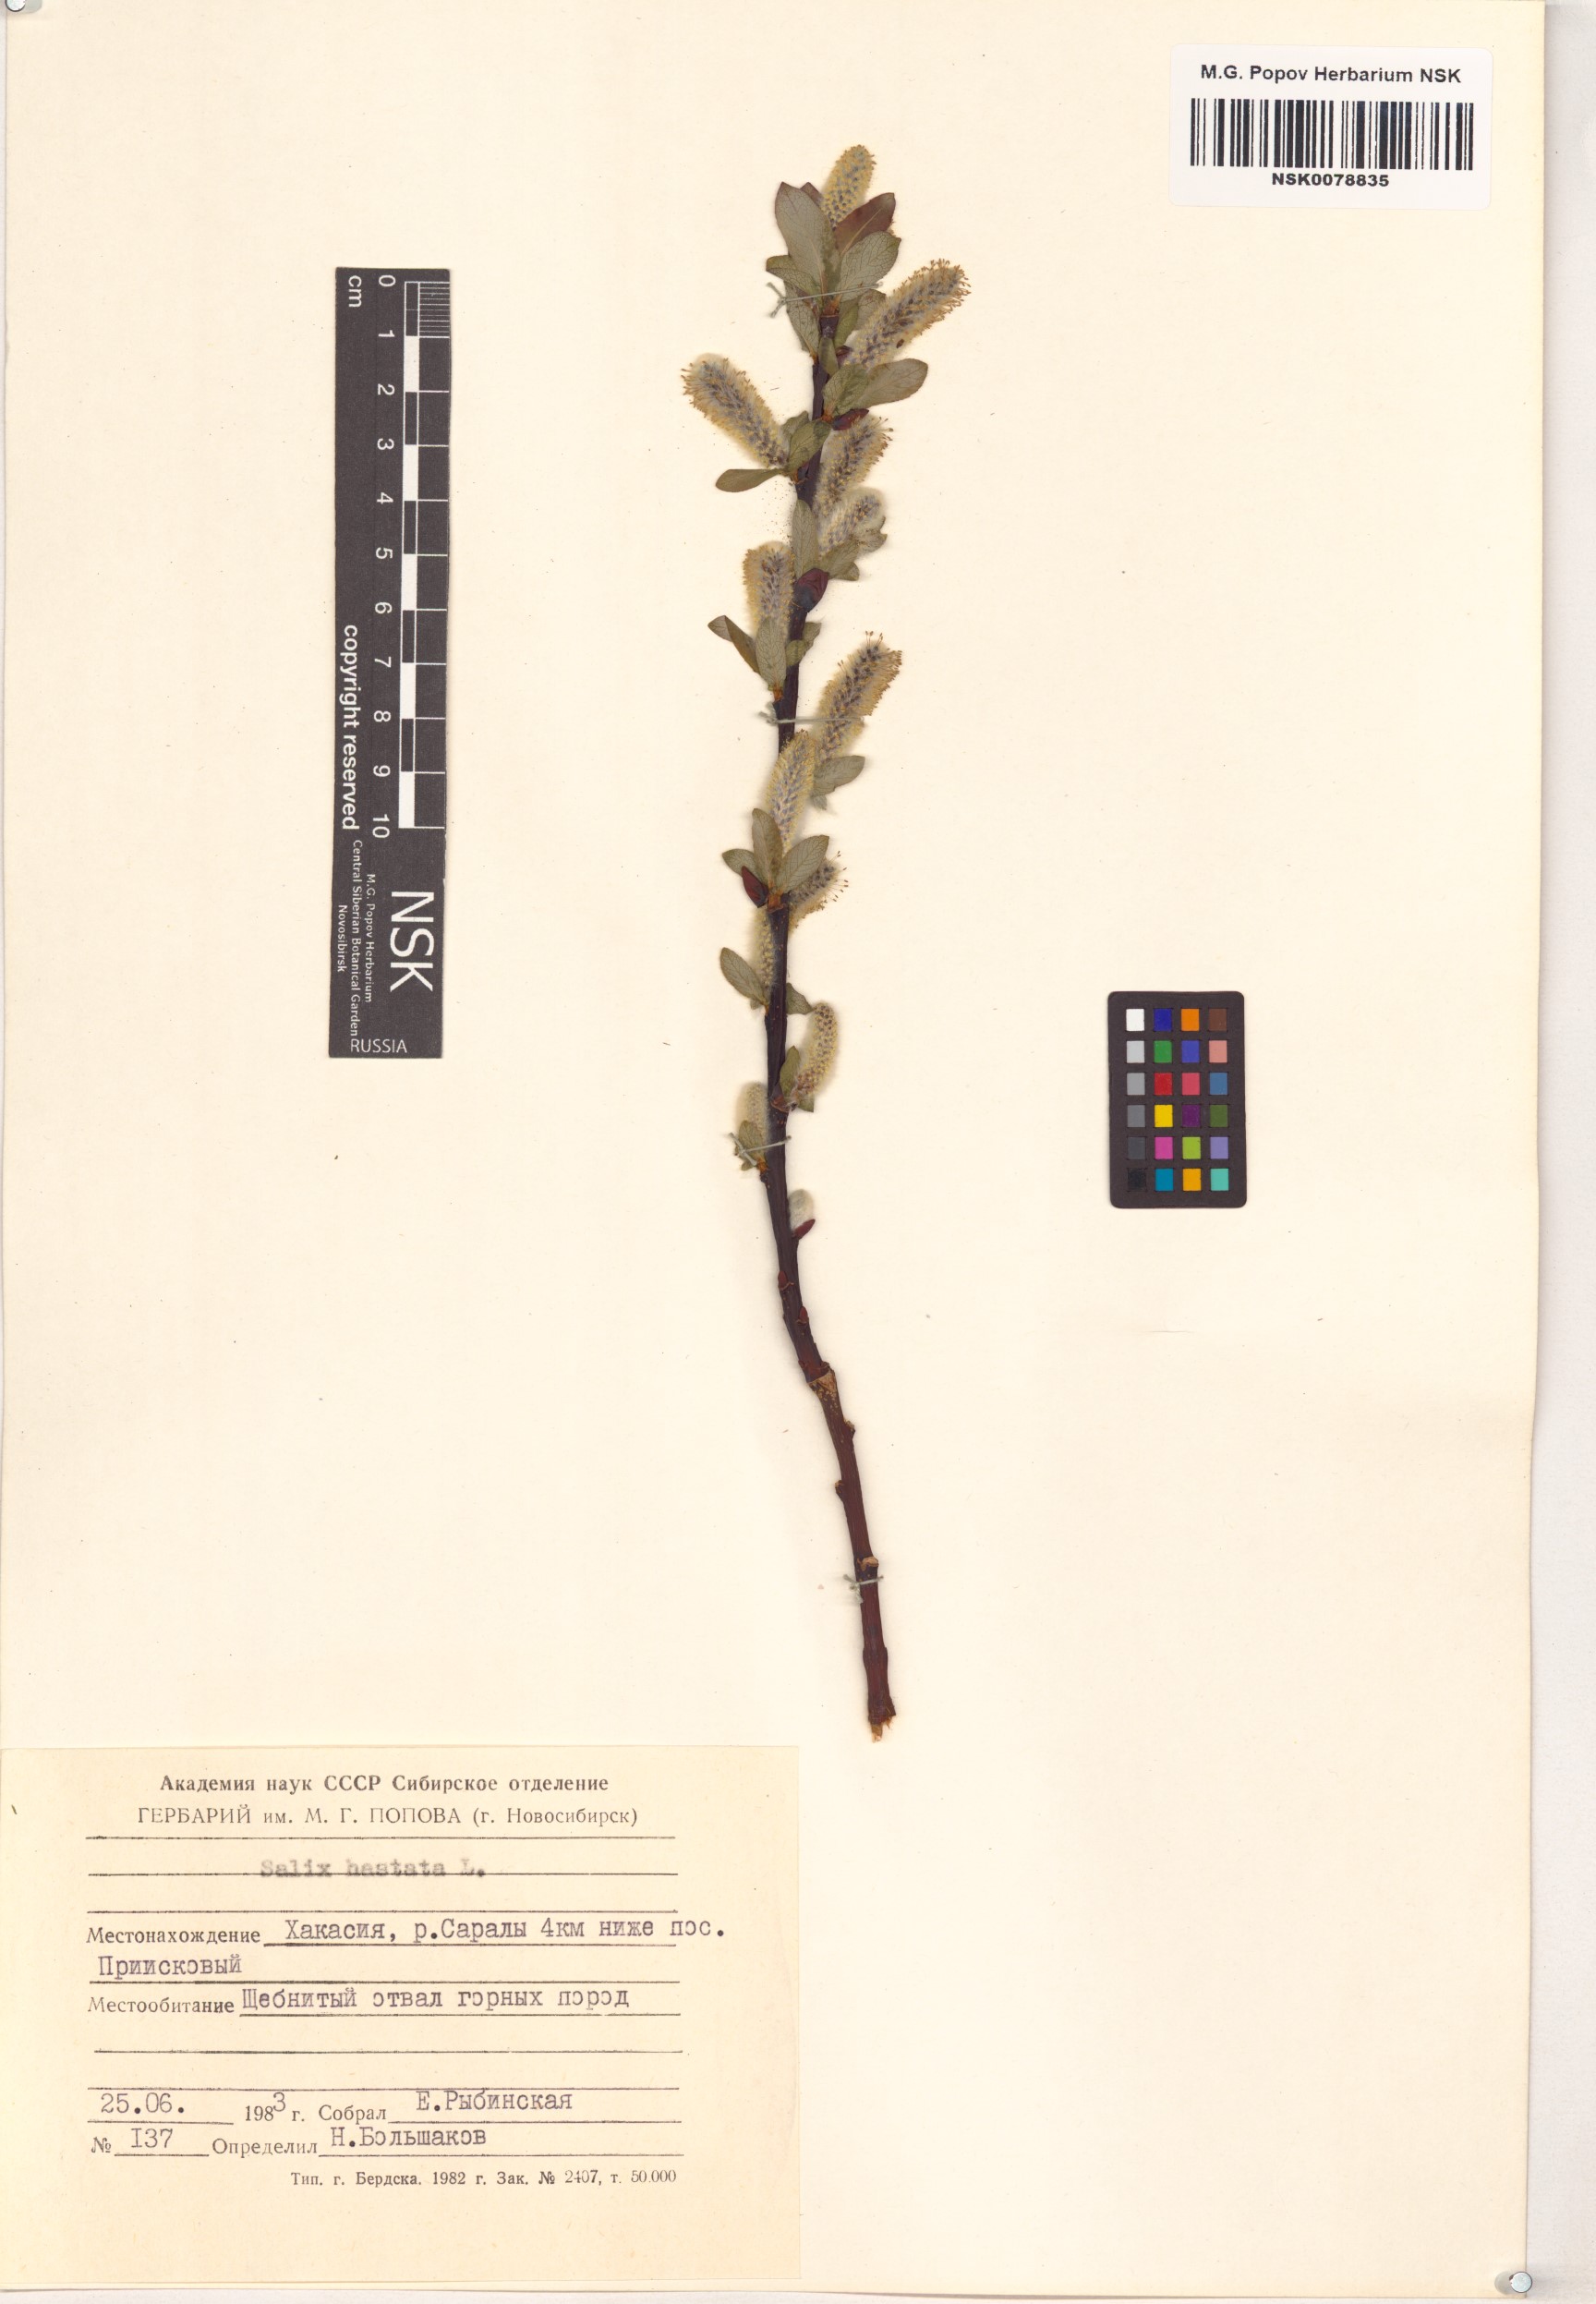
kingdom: Plantae
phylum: Tracheophyta
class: Magnoliopsida
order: Malpighiales
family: Salicaceae
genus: Salix
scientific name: Salix hastata
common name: Halberd willow
